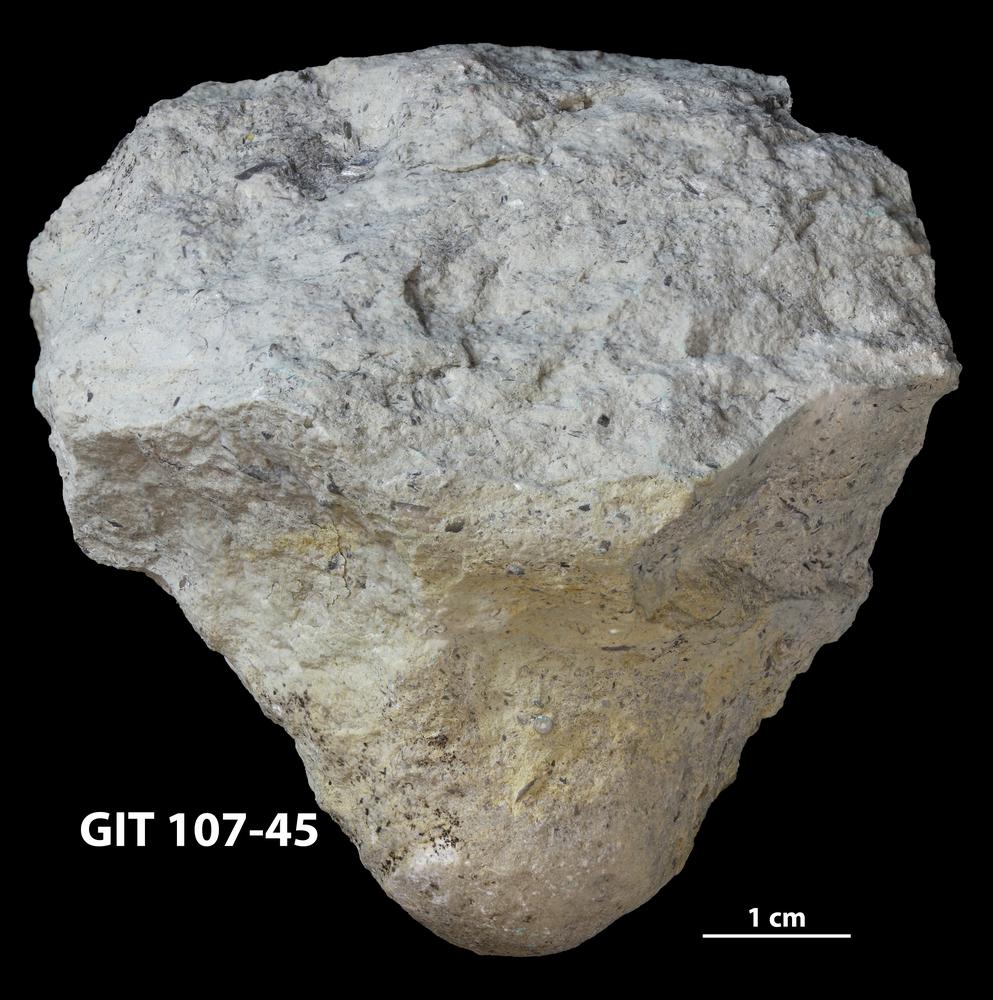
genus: Conichnus
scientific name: Conichnus
